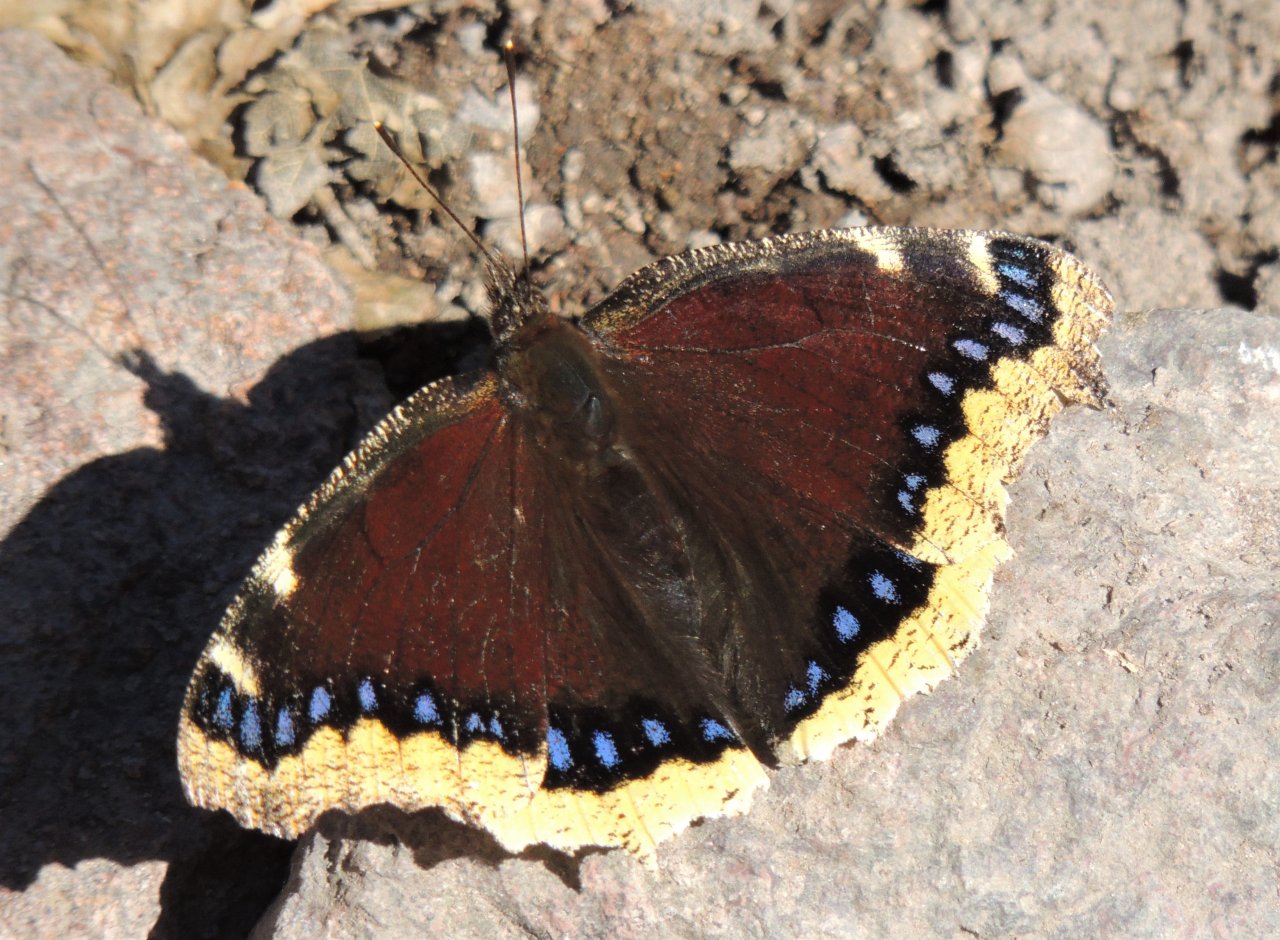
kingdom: Animalia
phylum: Arthropoda
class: Insecta
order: Lepidoptera
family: Nymphalidae
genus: Nymphalis
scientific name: Nymphalis antiopa
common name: Mourning Cloak
